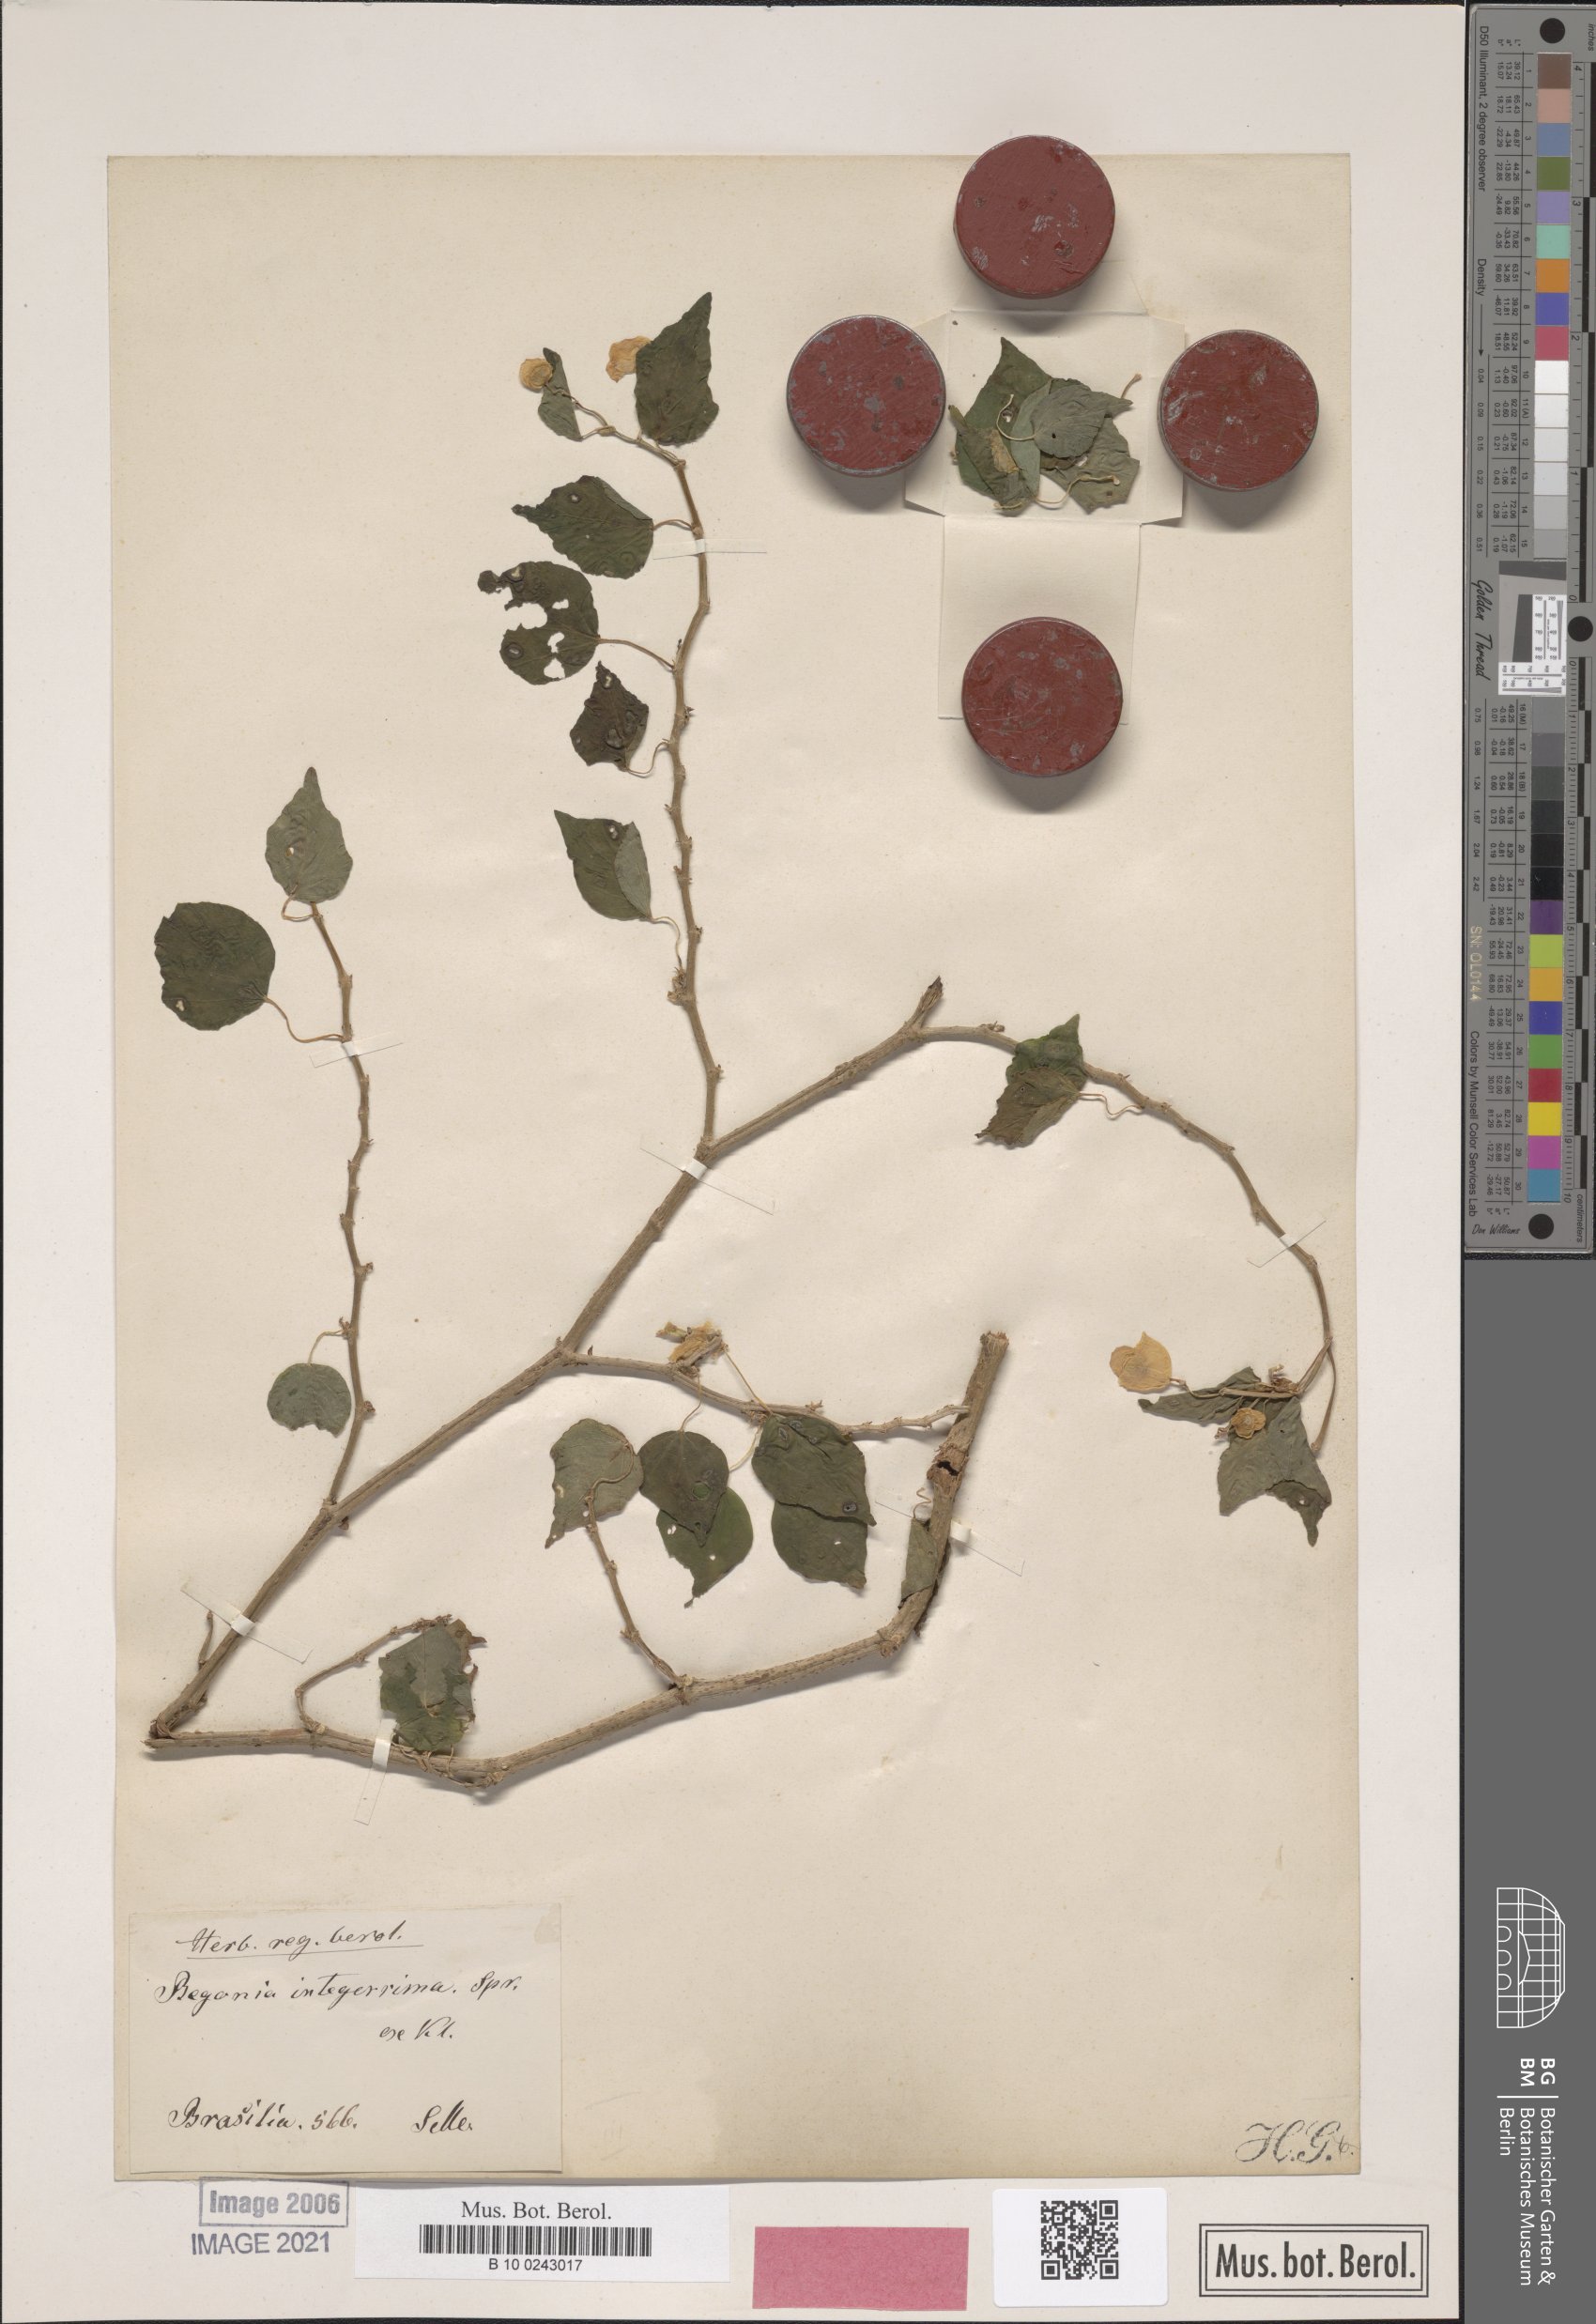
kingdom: Plantae
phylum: Tracheophyta
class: Magnoliopsida
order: Cucurbitales
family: Begoniaceae
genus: Begonia
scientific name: Begonia integerrima
